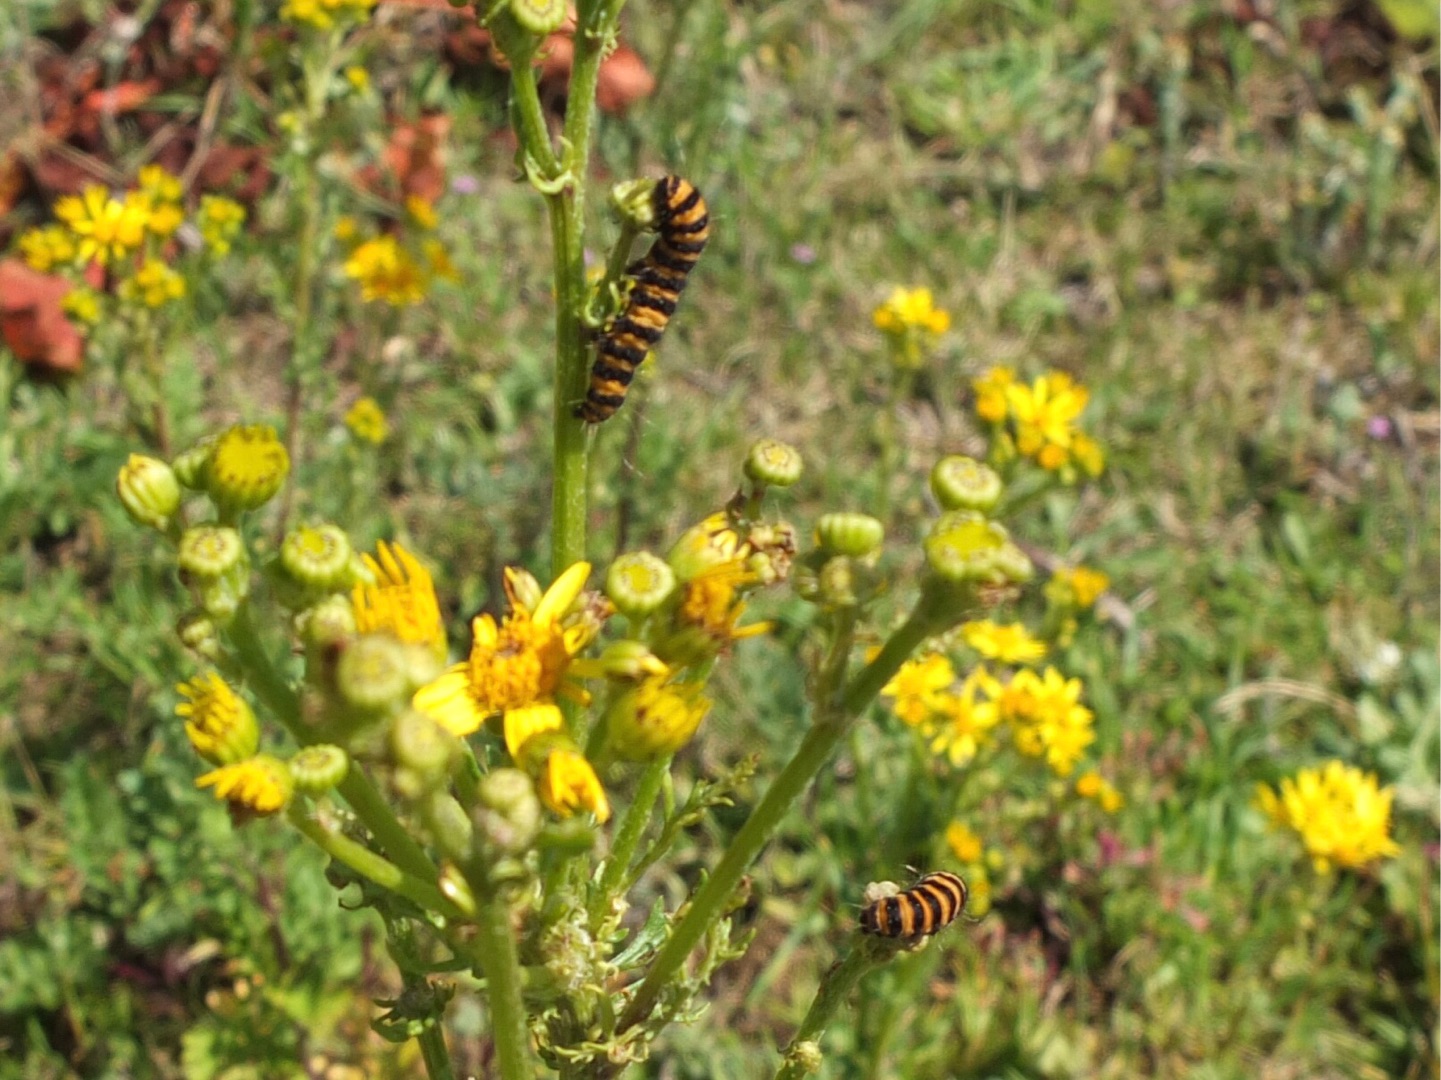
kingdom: Animalia
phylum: Arthropoda
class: Insecta
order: Lepidoptera
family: Erebidae
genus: Tyria
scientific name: Tyria jacobaeae
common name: Blodplet
